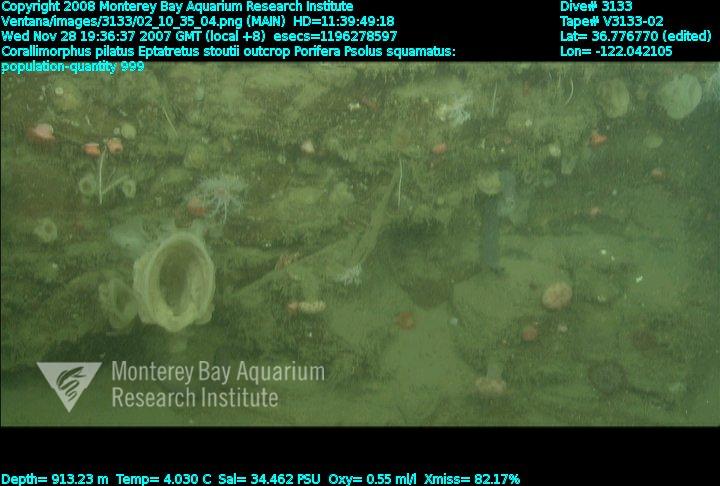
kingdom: Animalia
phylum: Porifera
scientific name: Porifera
